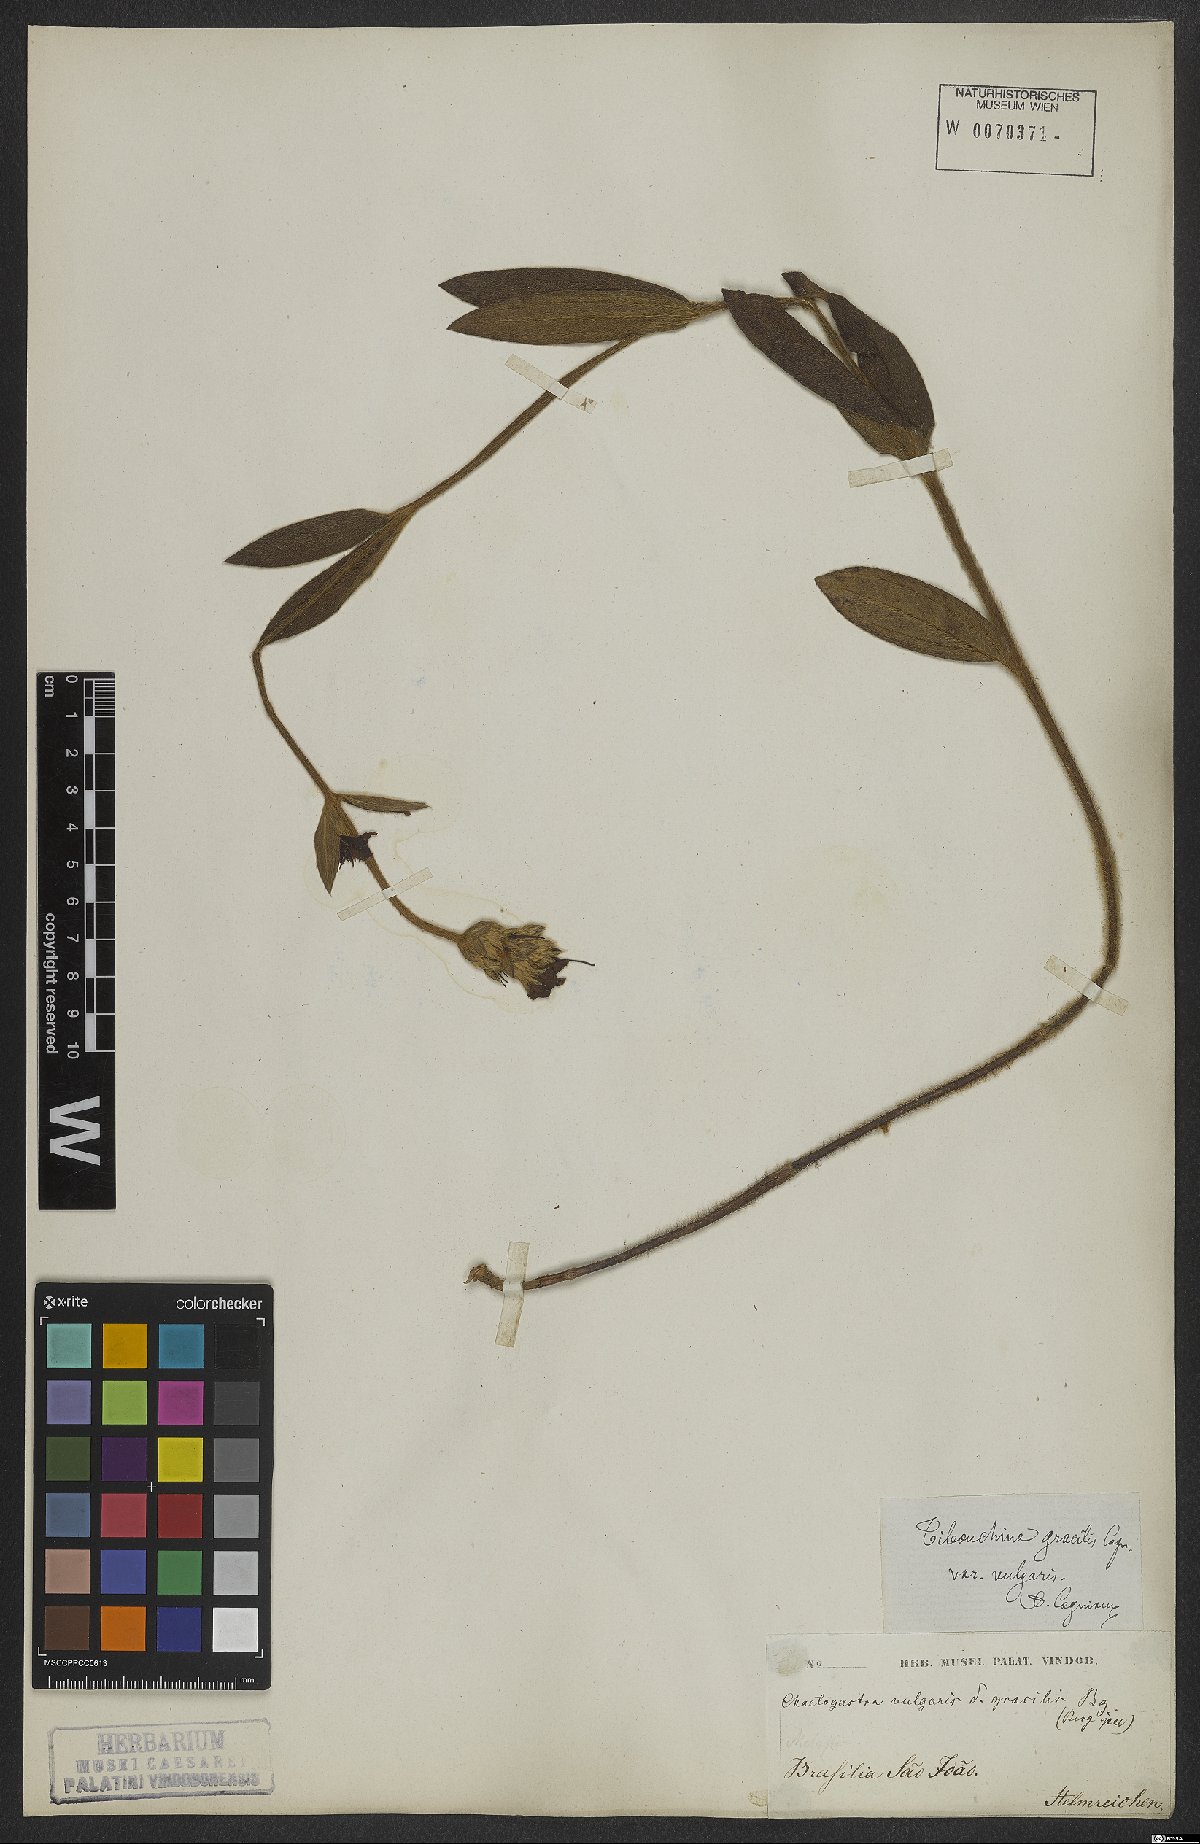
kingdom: Plantae
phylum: Tracheophyta
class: Magnoliopsida
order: Myrtales
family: Melastomataceae
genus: Chaetogastra
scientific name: Chaetogastra gracilis
